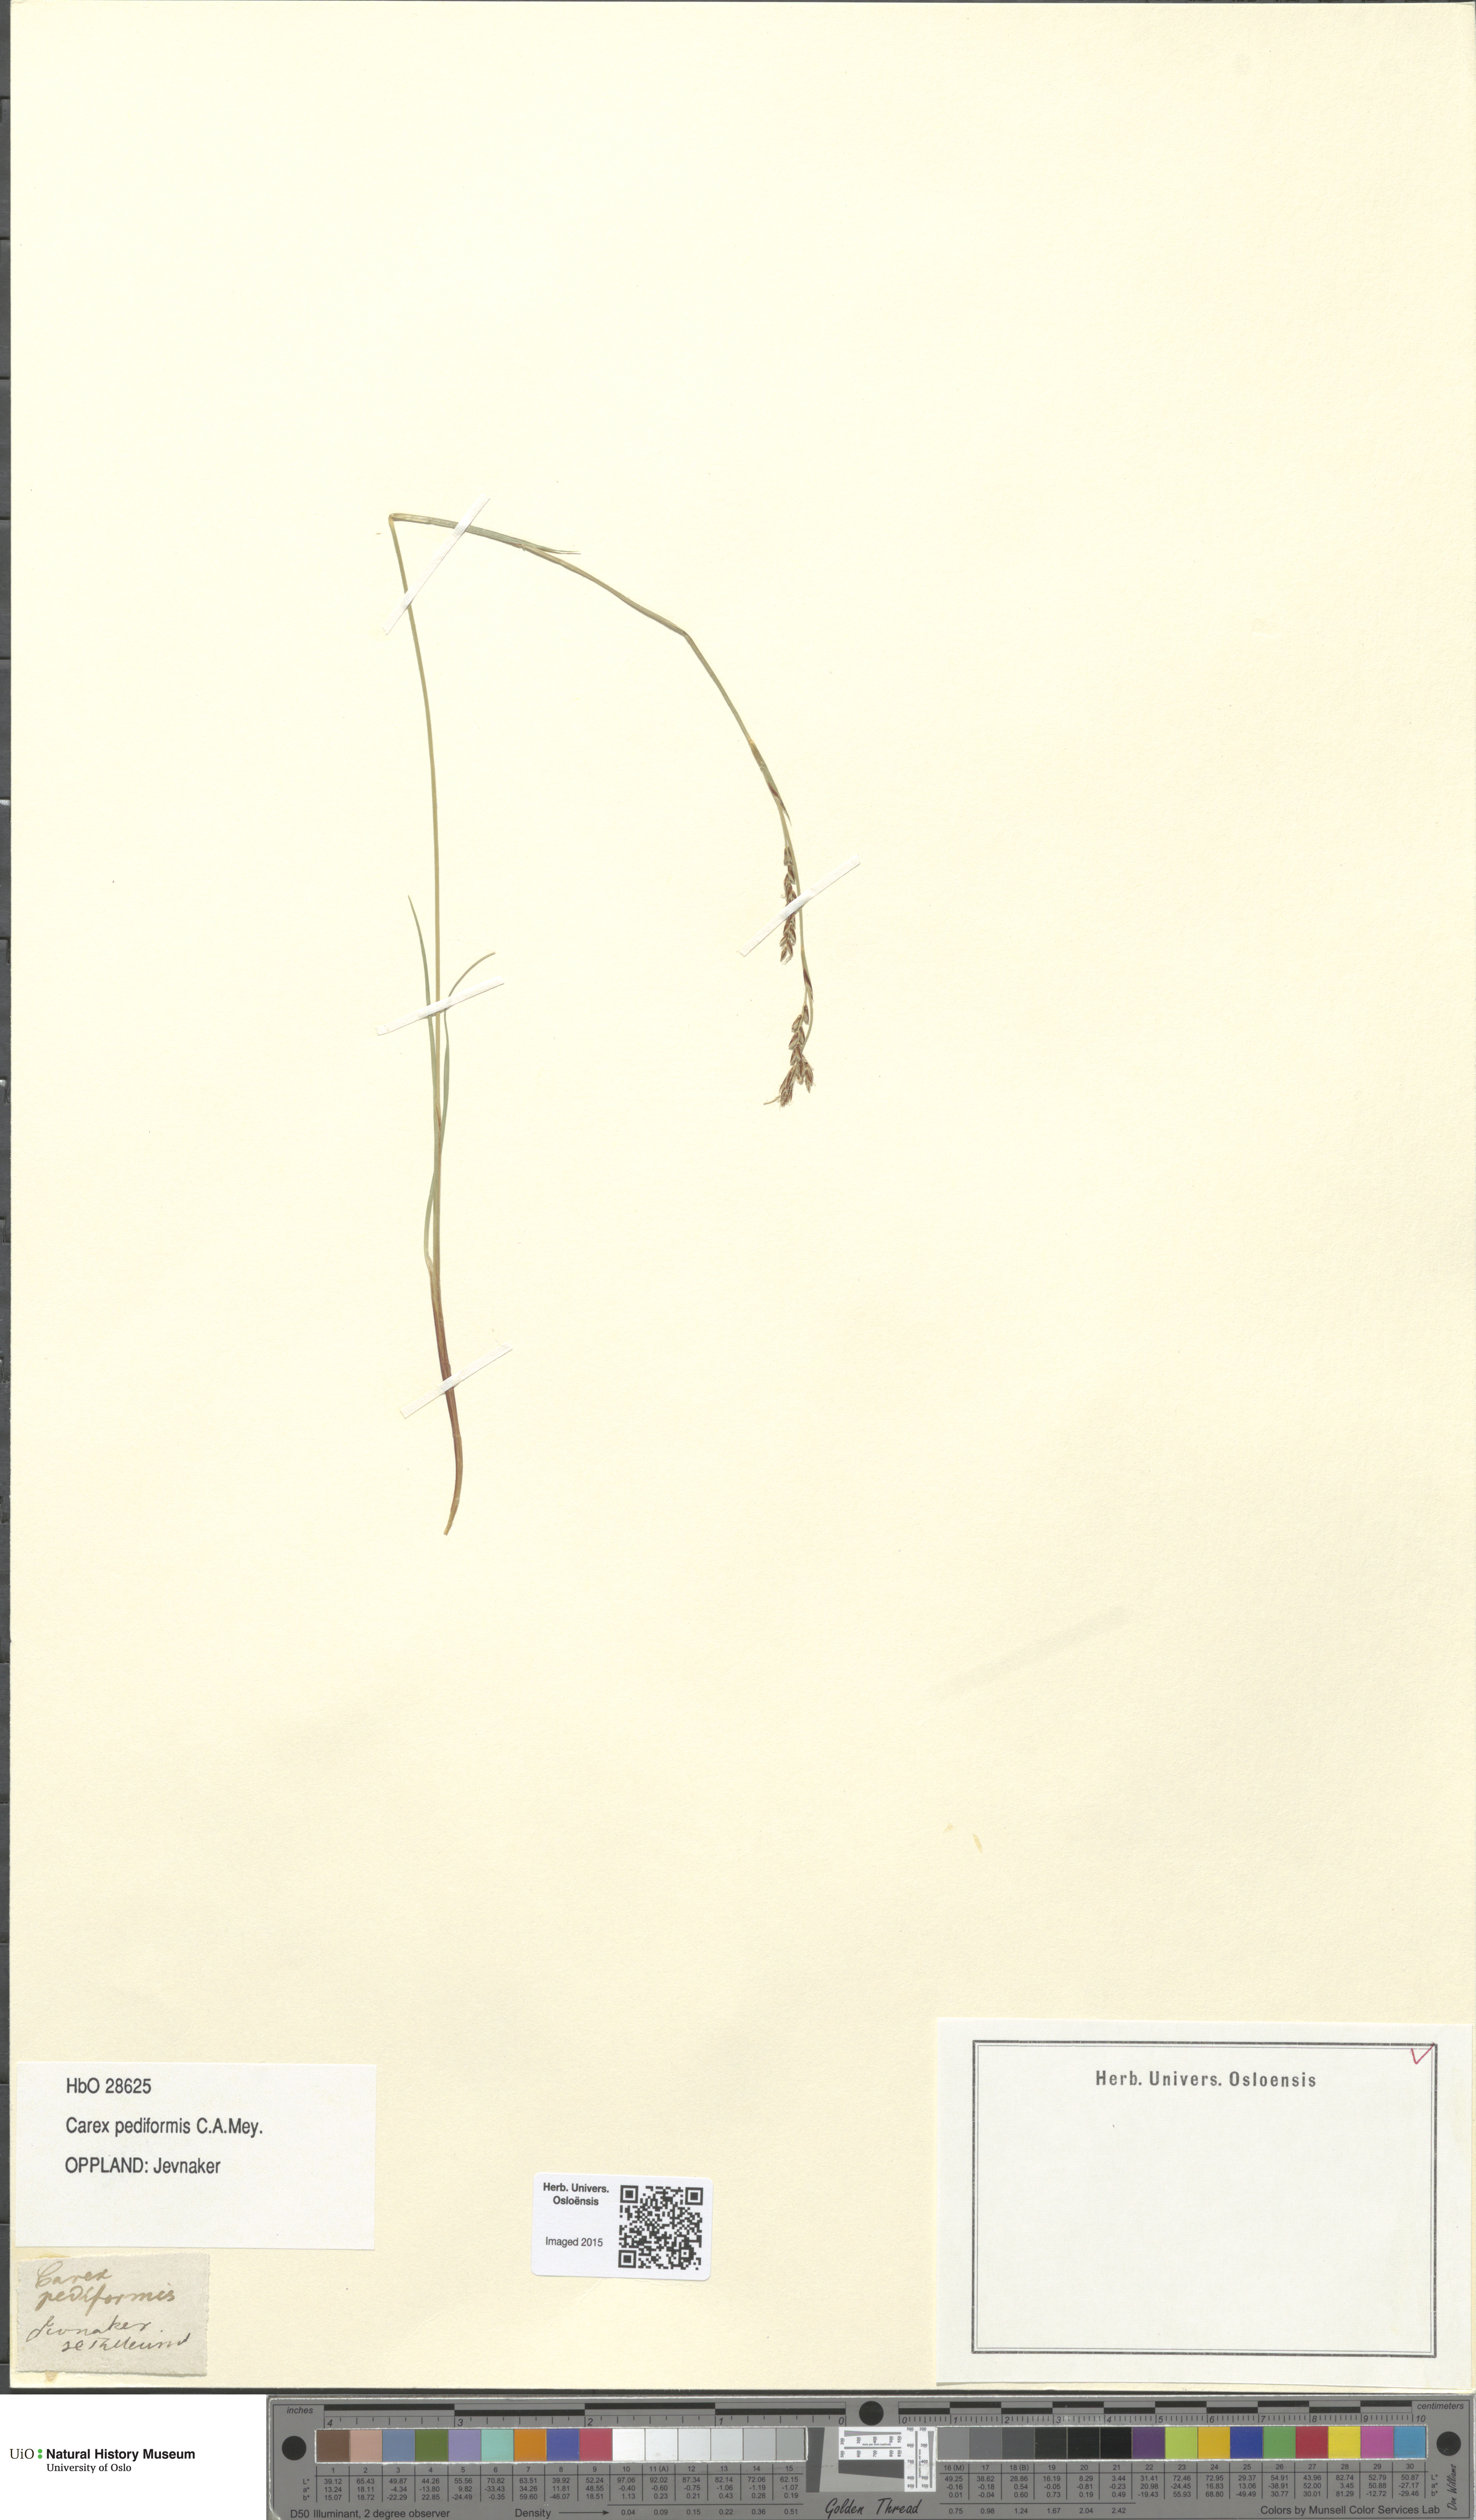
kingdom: Plantae
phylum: Tracheophyta
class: Liliopsida
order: Poales
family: Cyperaceae
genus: Carex
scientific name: Carex rhizina
